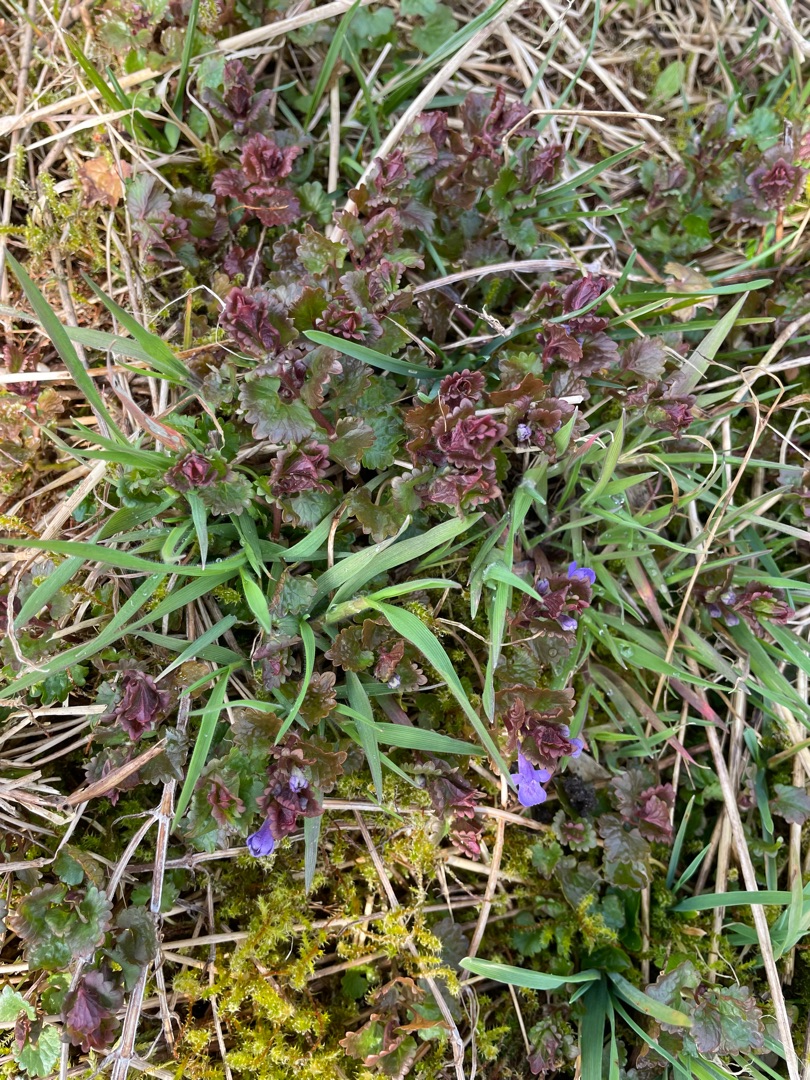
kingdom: Plantae
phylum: Tracheophyta
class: Magnoliopsida
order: Lamiales
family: Lamiaceae
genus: Glechoma
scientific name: Glechoma hederacea
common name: Korsknap
